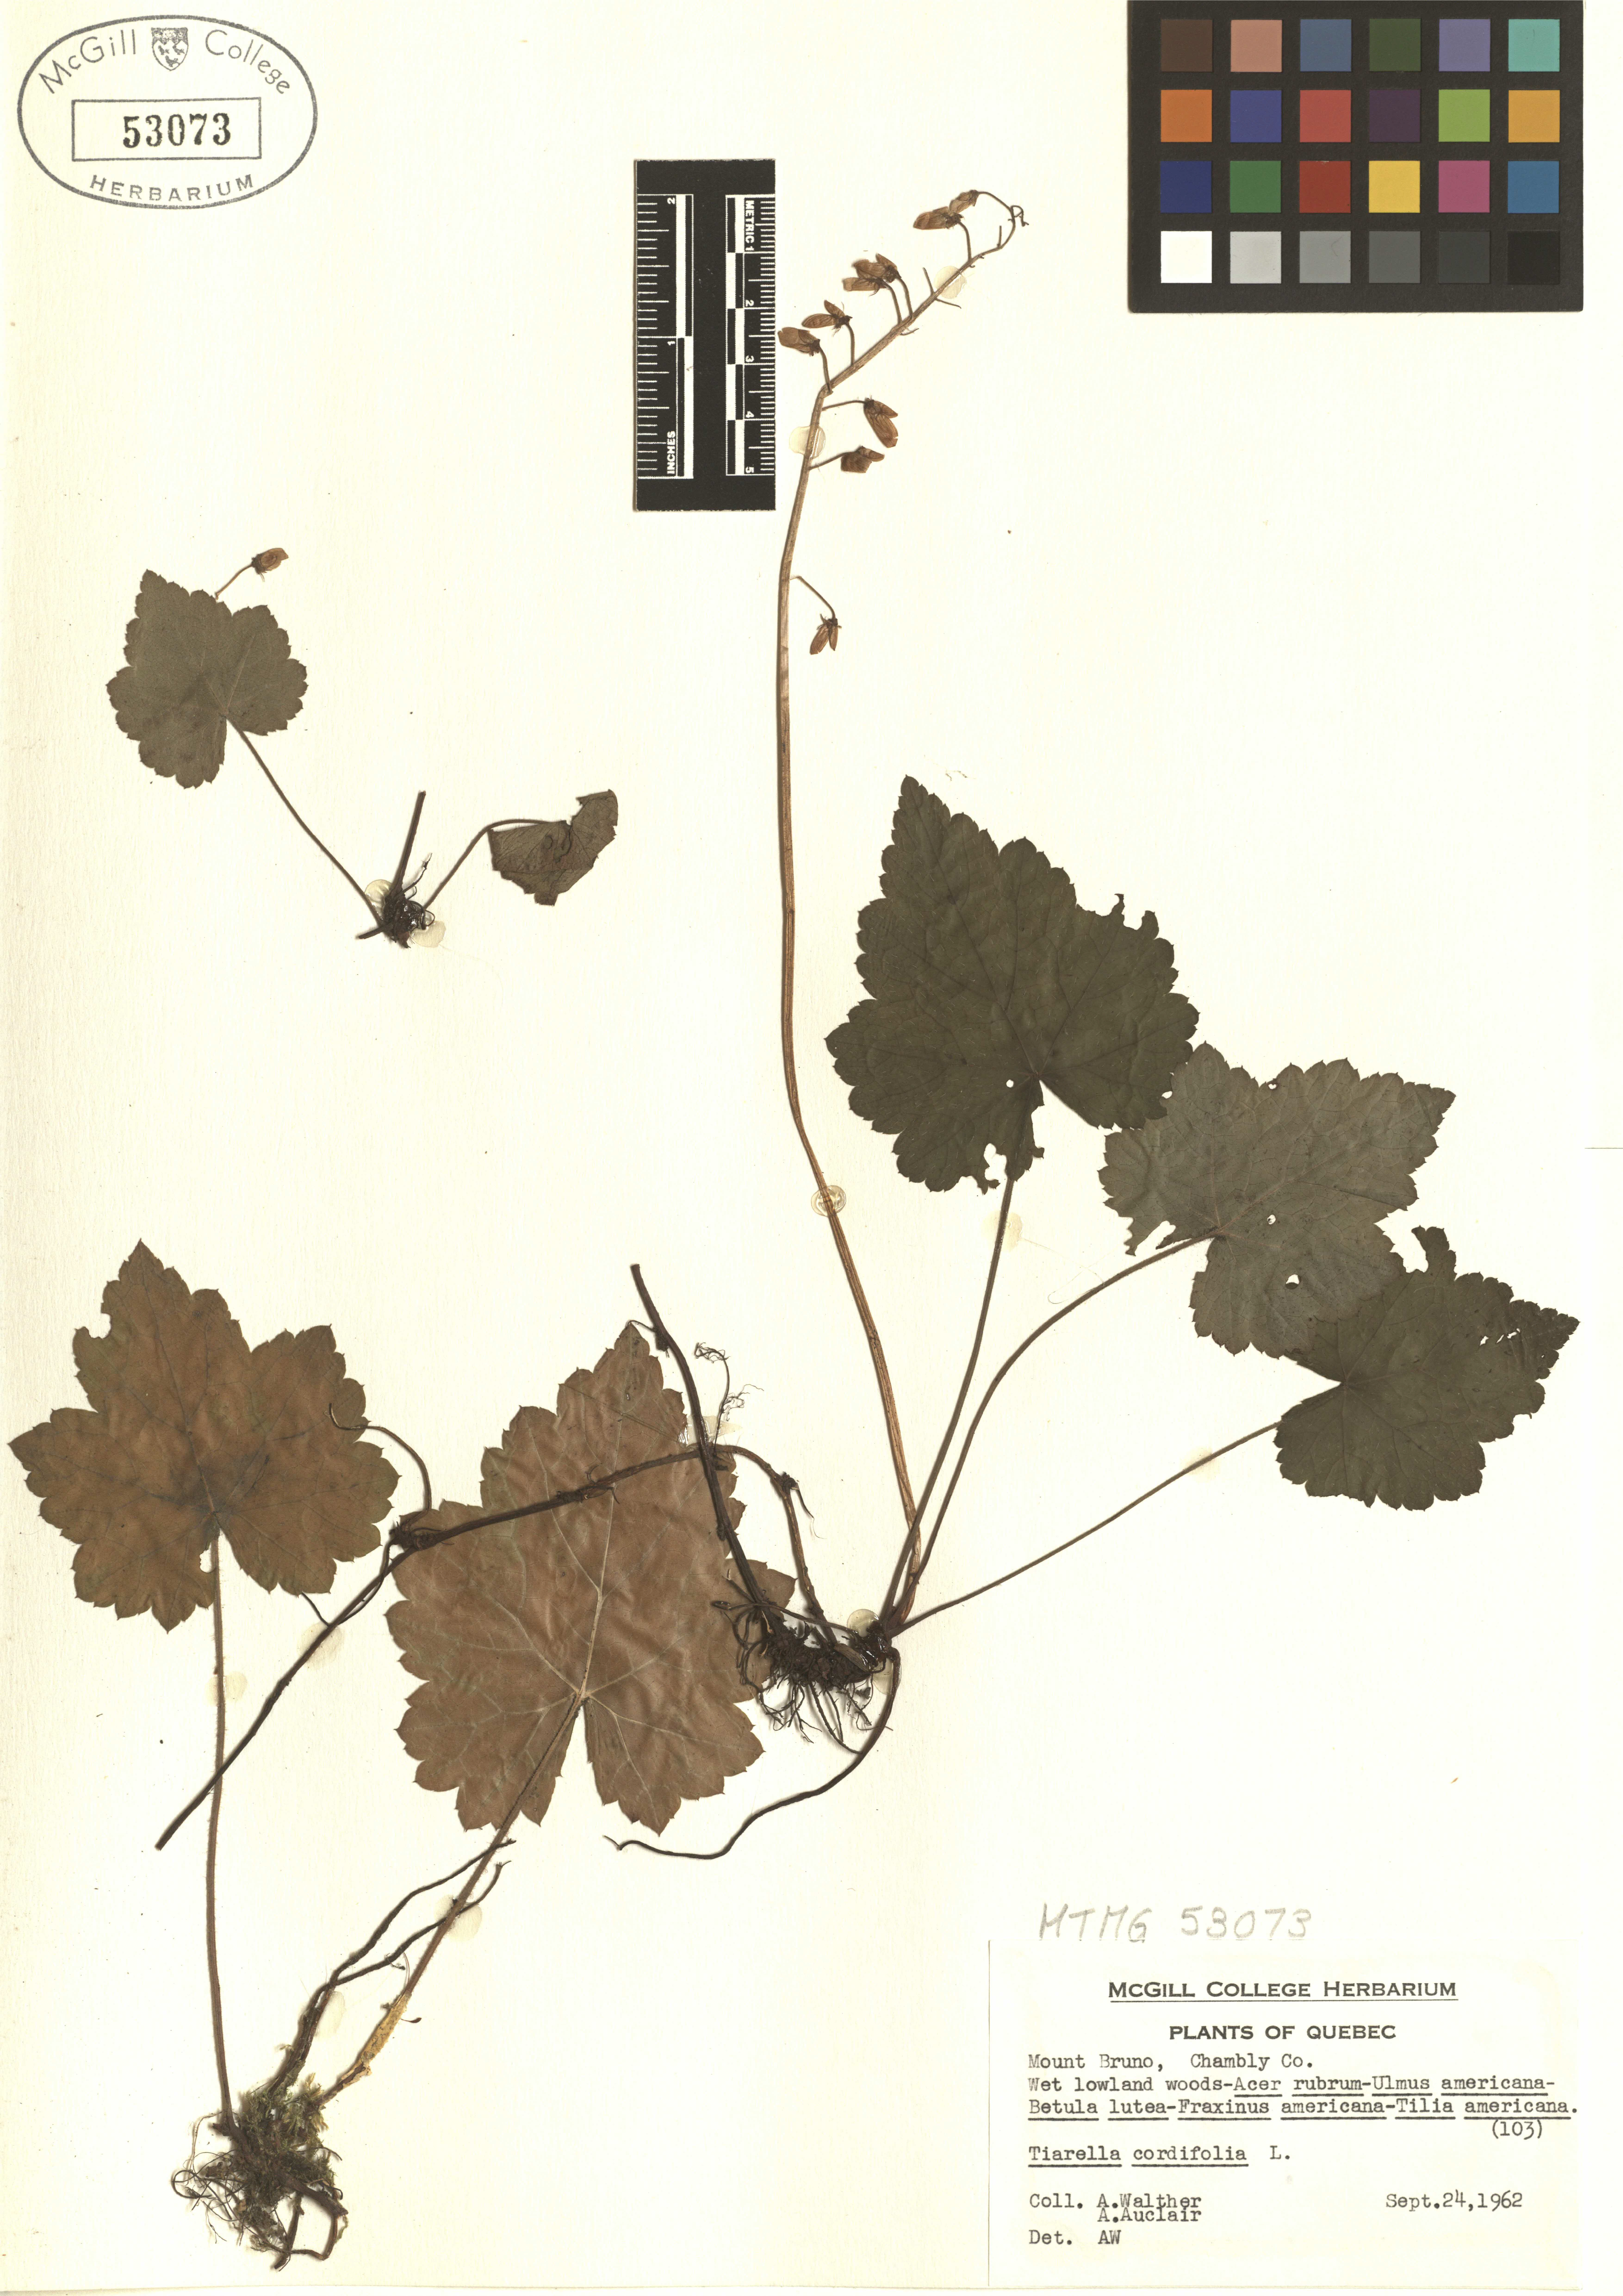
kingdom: Plantae
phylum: Tracheophyta
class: Magnoliopsida
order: Saxifragales
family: Saxifragaceae
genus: Tiarella
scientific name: Tiarella cordifolia
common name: Foamflower
